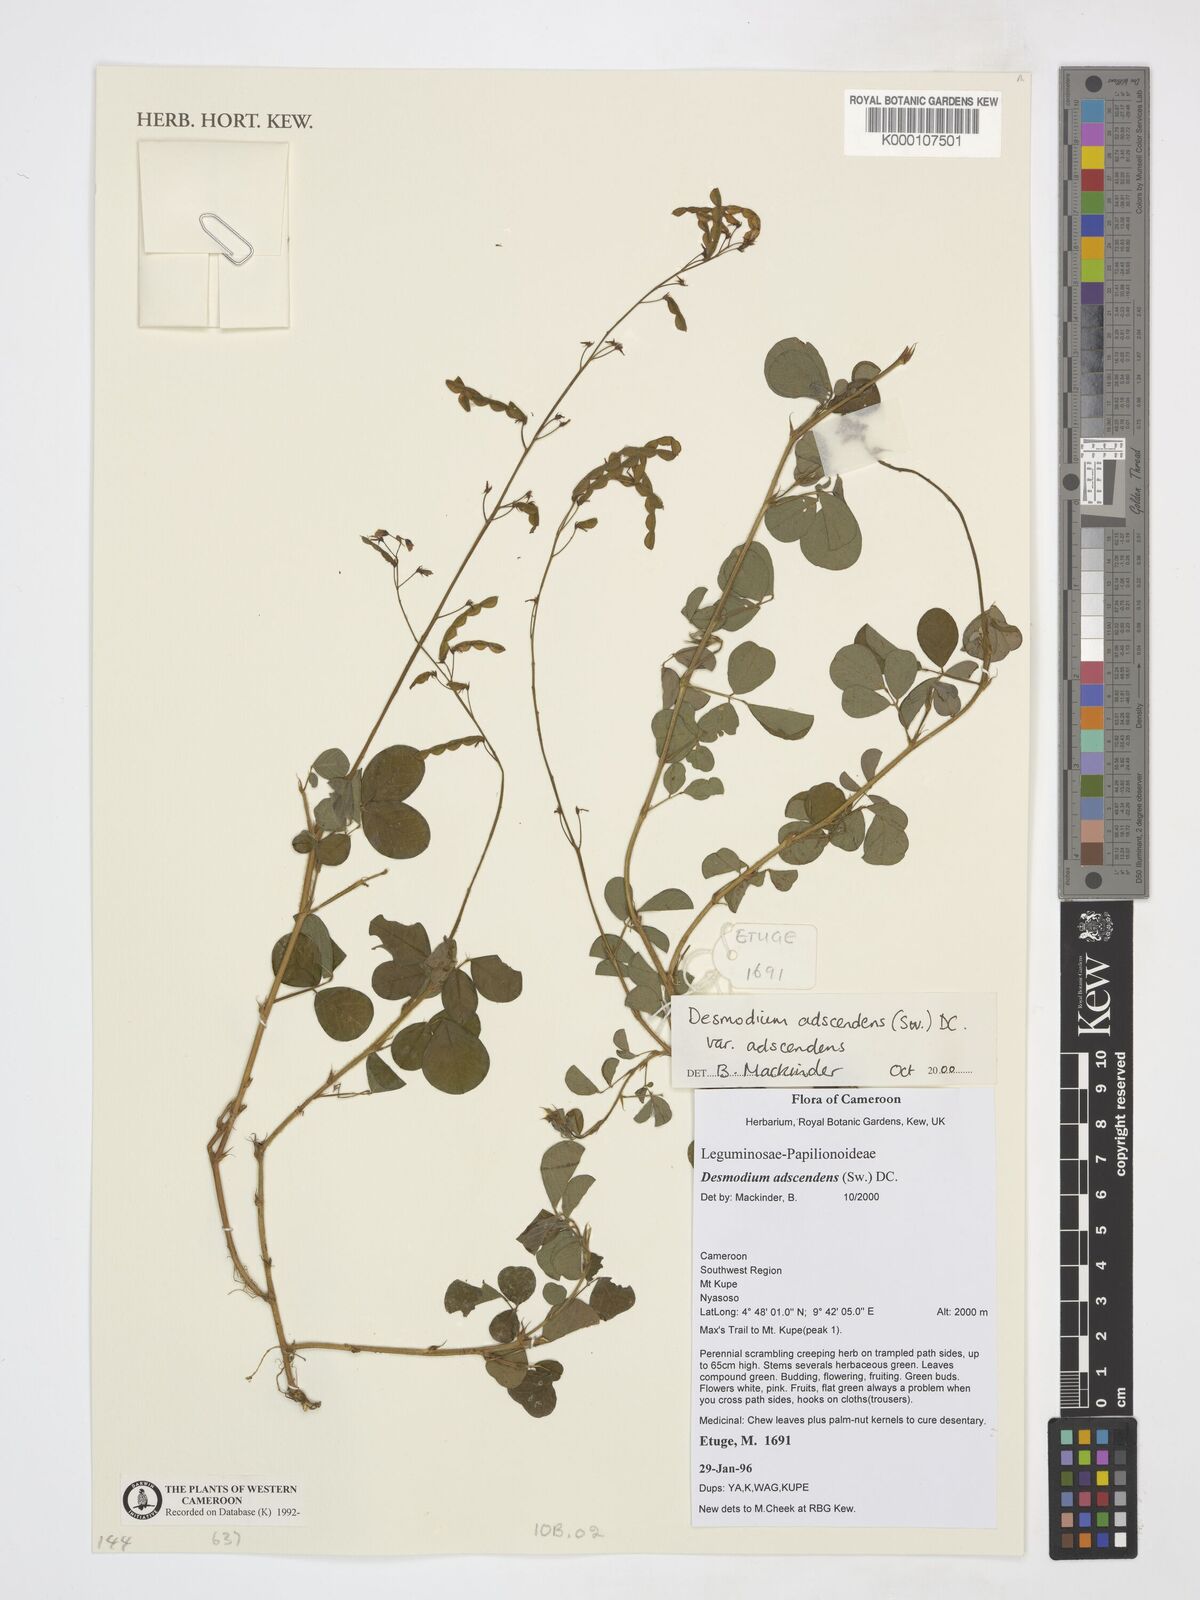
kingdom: Plantae
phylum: Tracheophyta
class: Magnoliopsida
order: Fabales
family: Fabaceae
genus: Grona
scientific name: Grona adscendens
